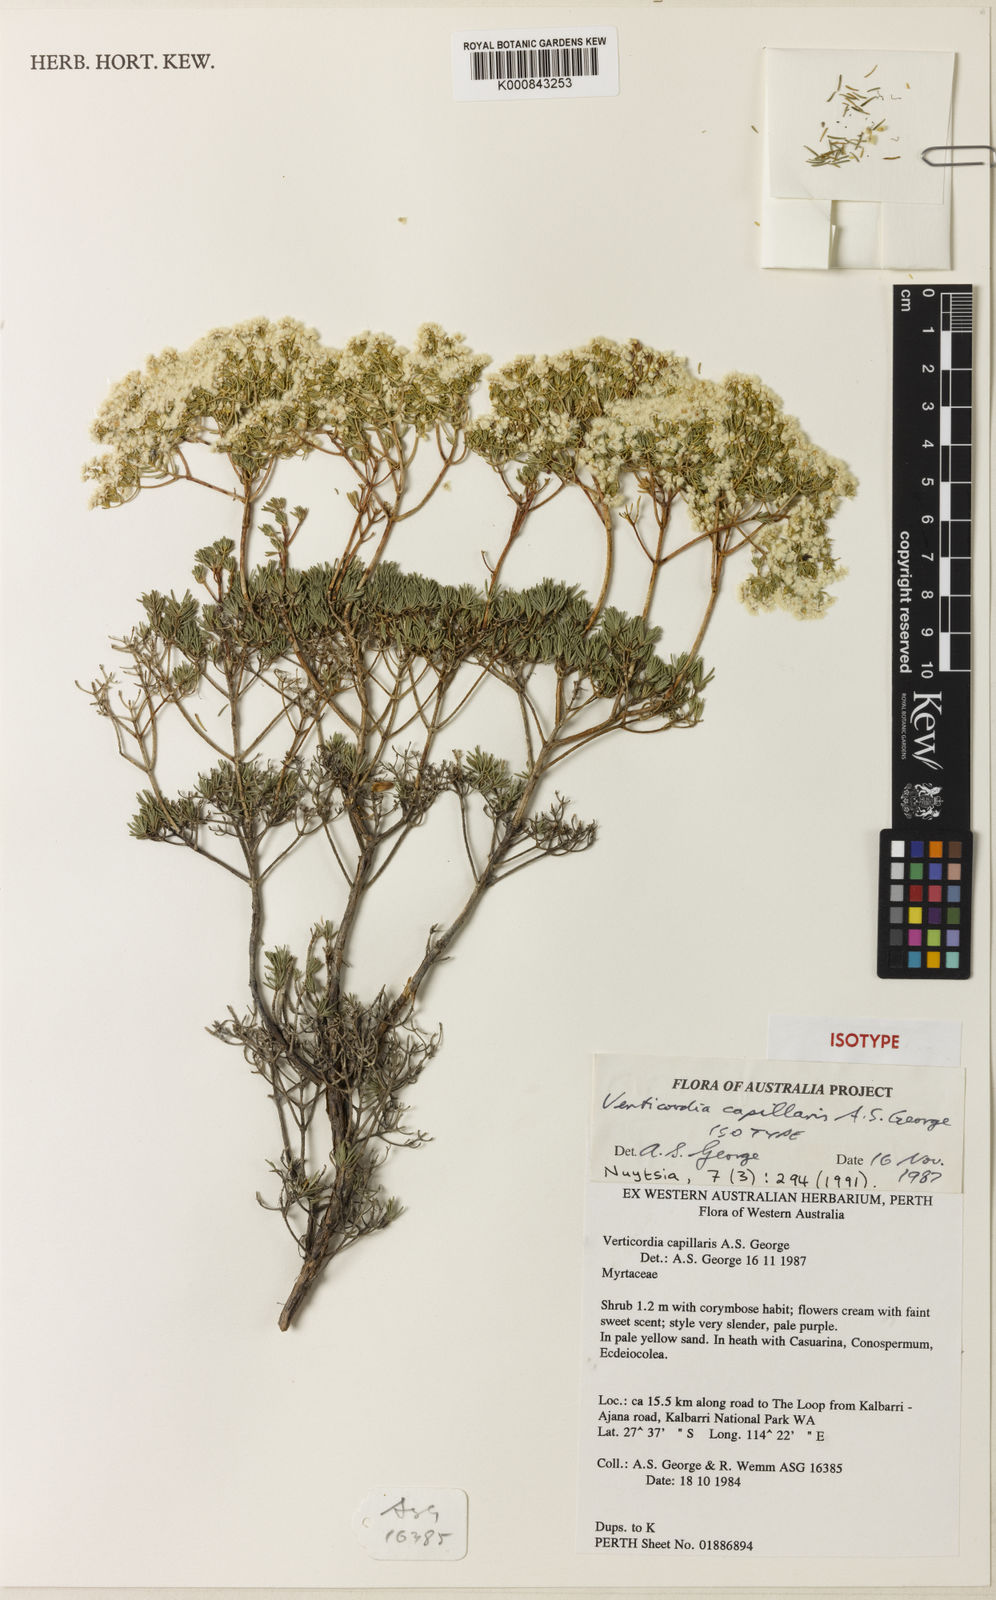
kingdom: Plantae
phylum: Tracheophyta
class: Magnoliopsida
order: Myrtales
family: Myrtaceae
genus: Verticordia
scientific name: Verticordia capillaris
